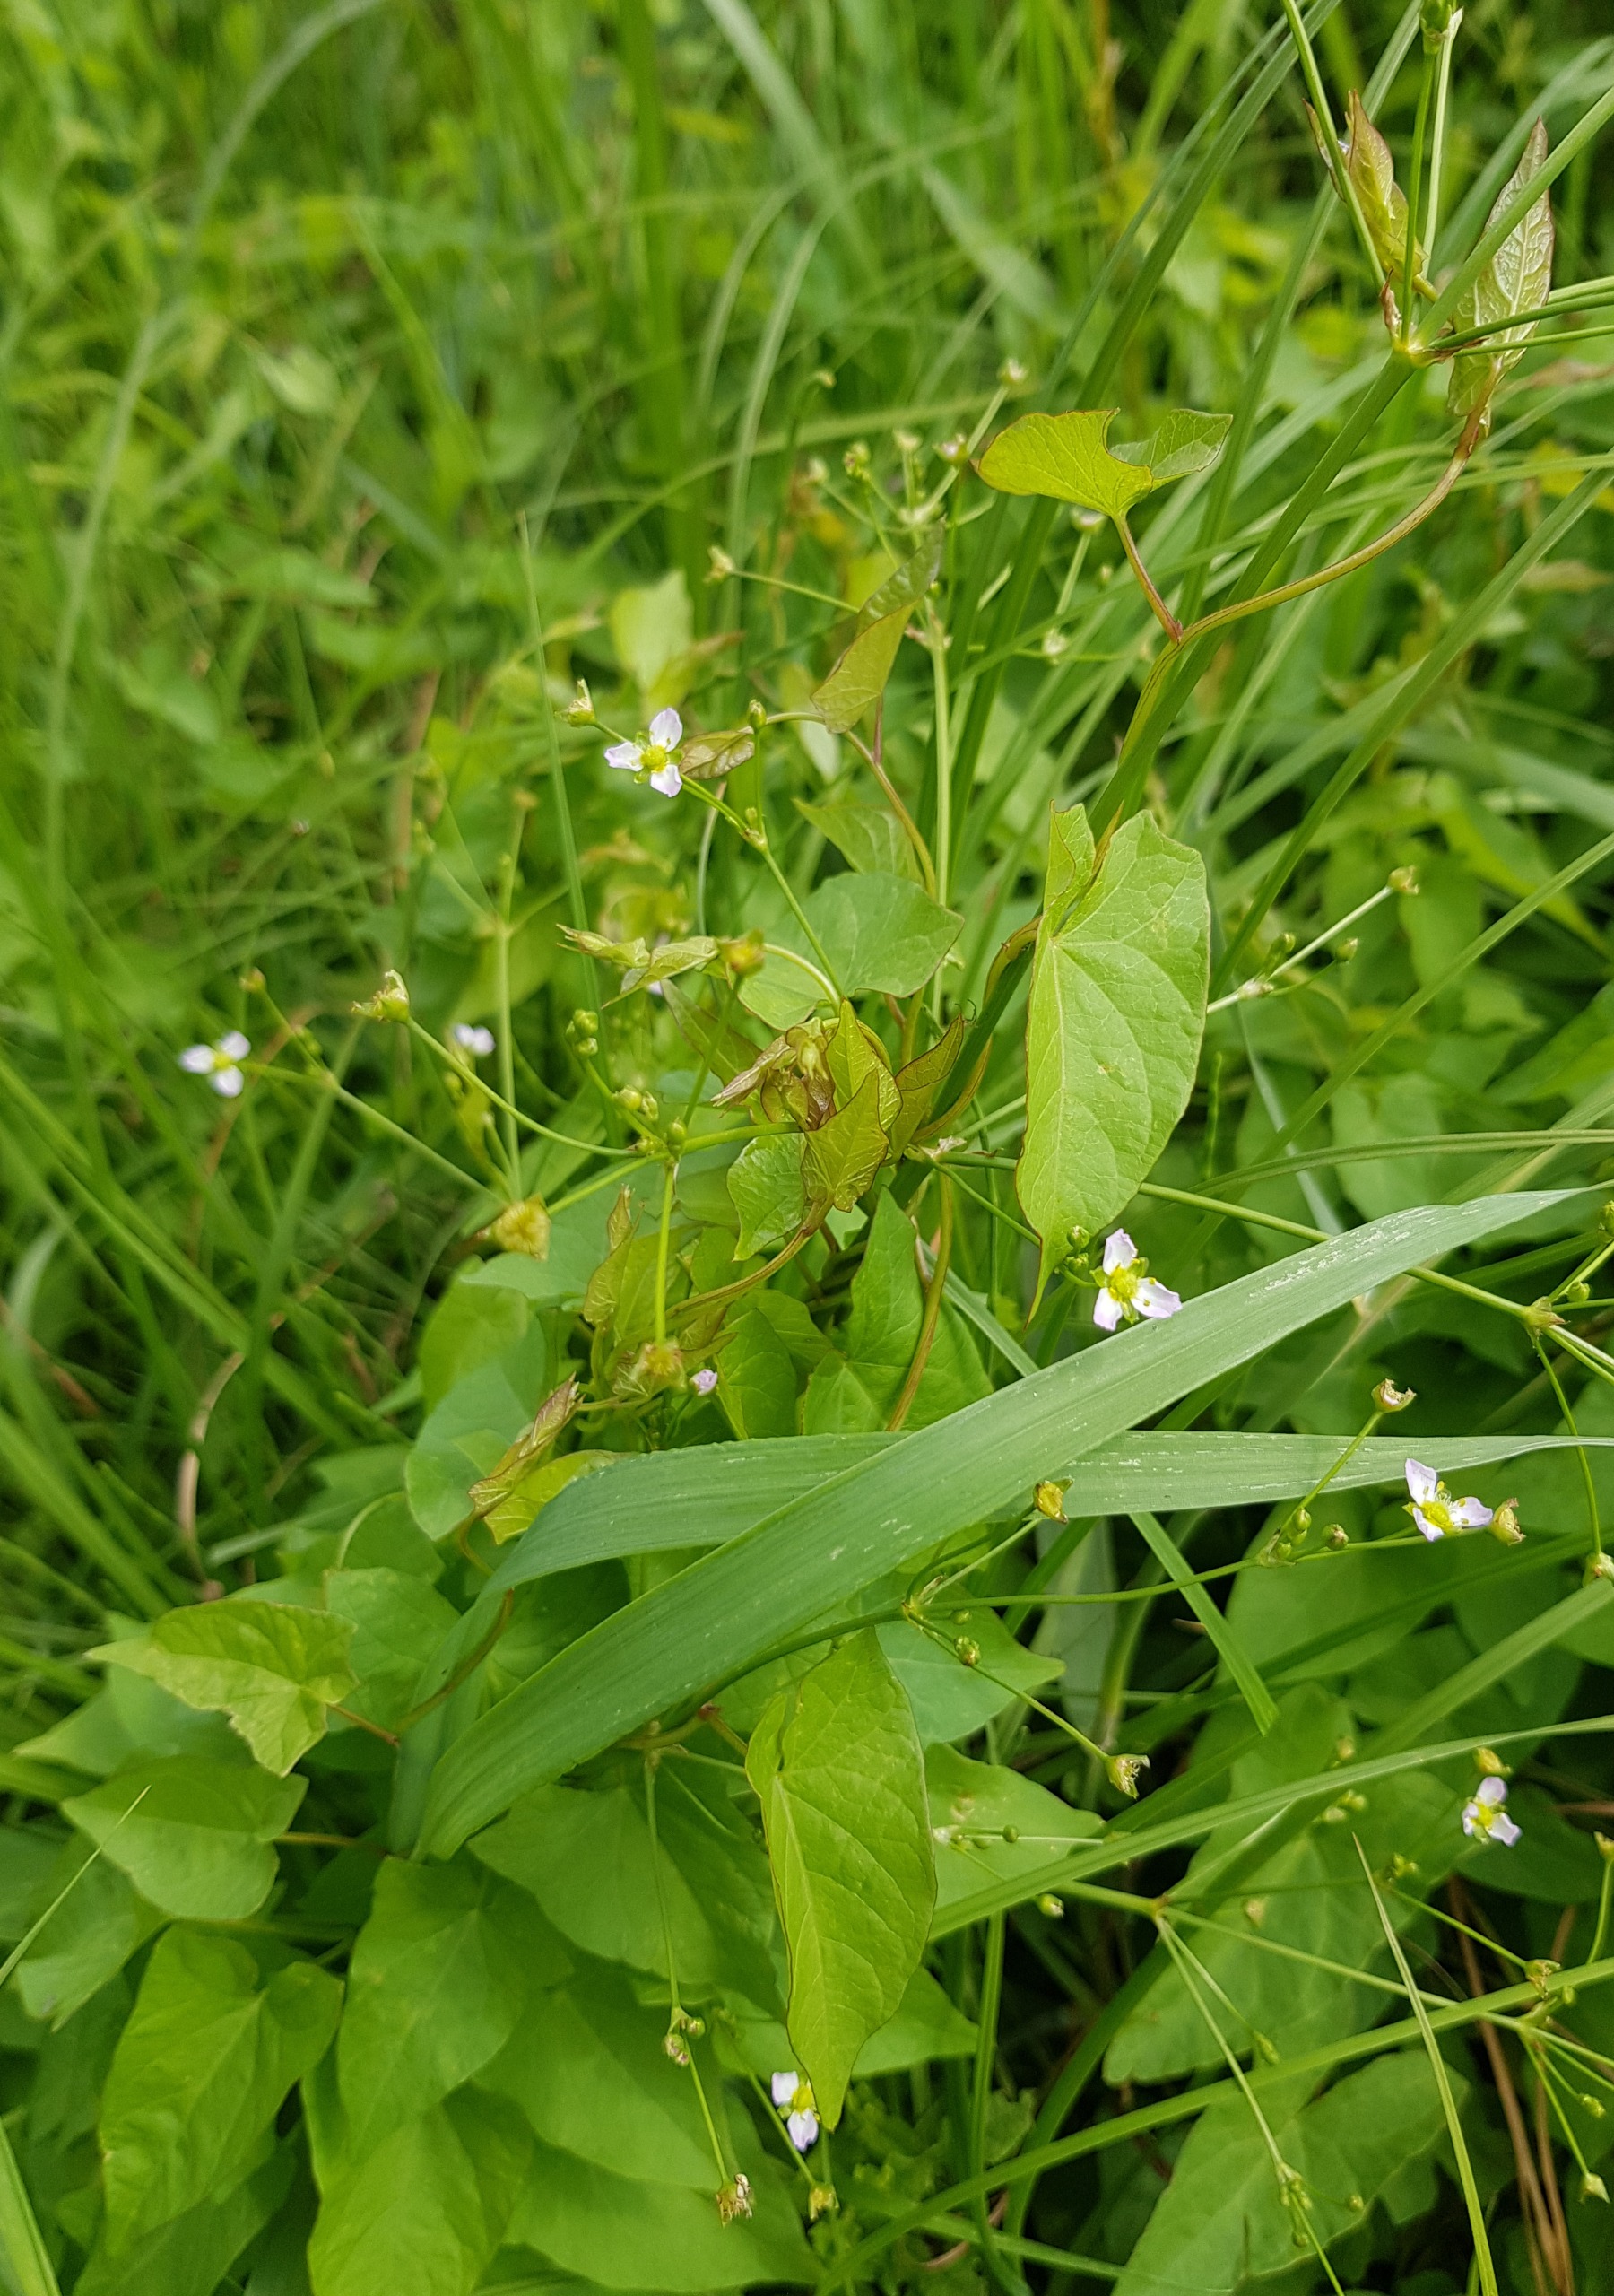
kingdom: Plantae
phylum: Tracheophyta
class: Liliopsida
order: Alismatales
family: Alismataceae
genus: Alisma
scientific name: Alisma plantago-aquatica
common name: Vejbred-skeblad
